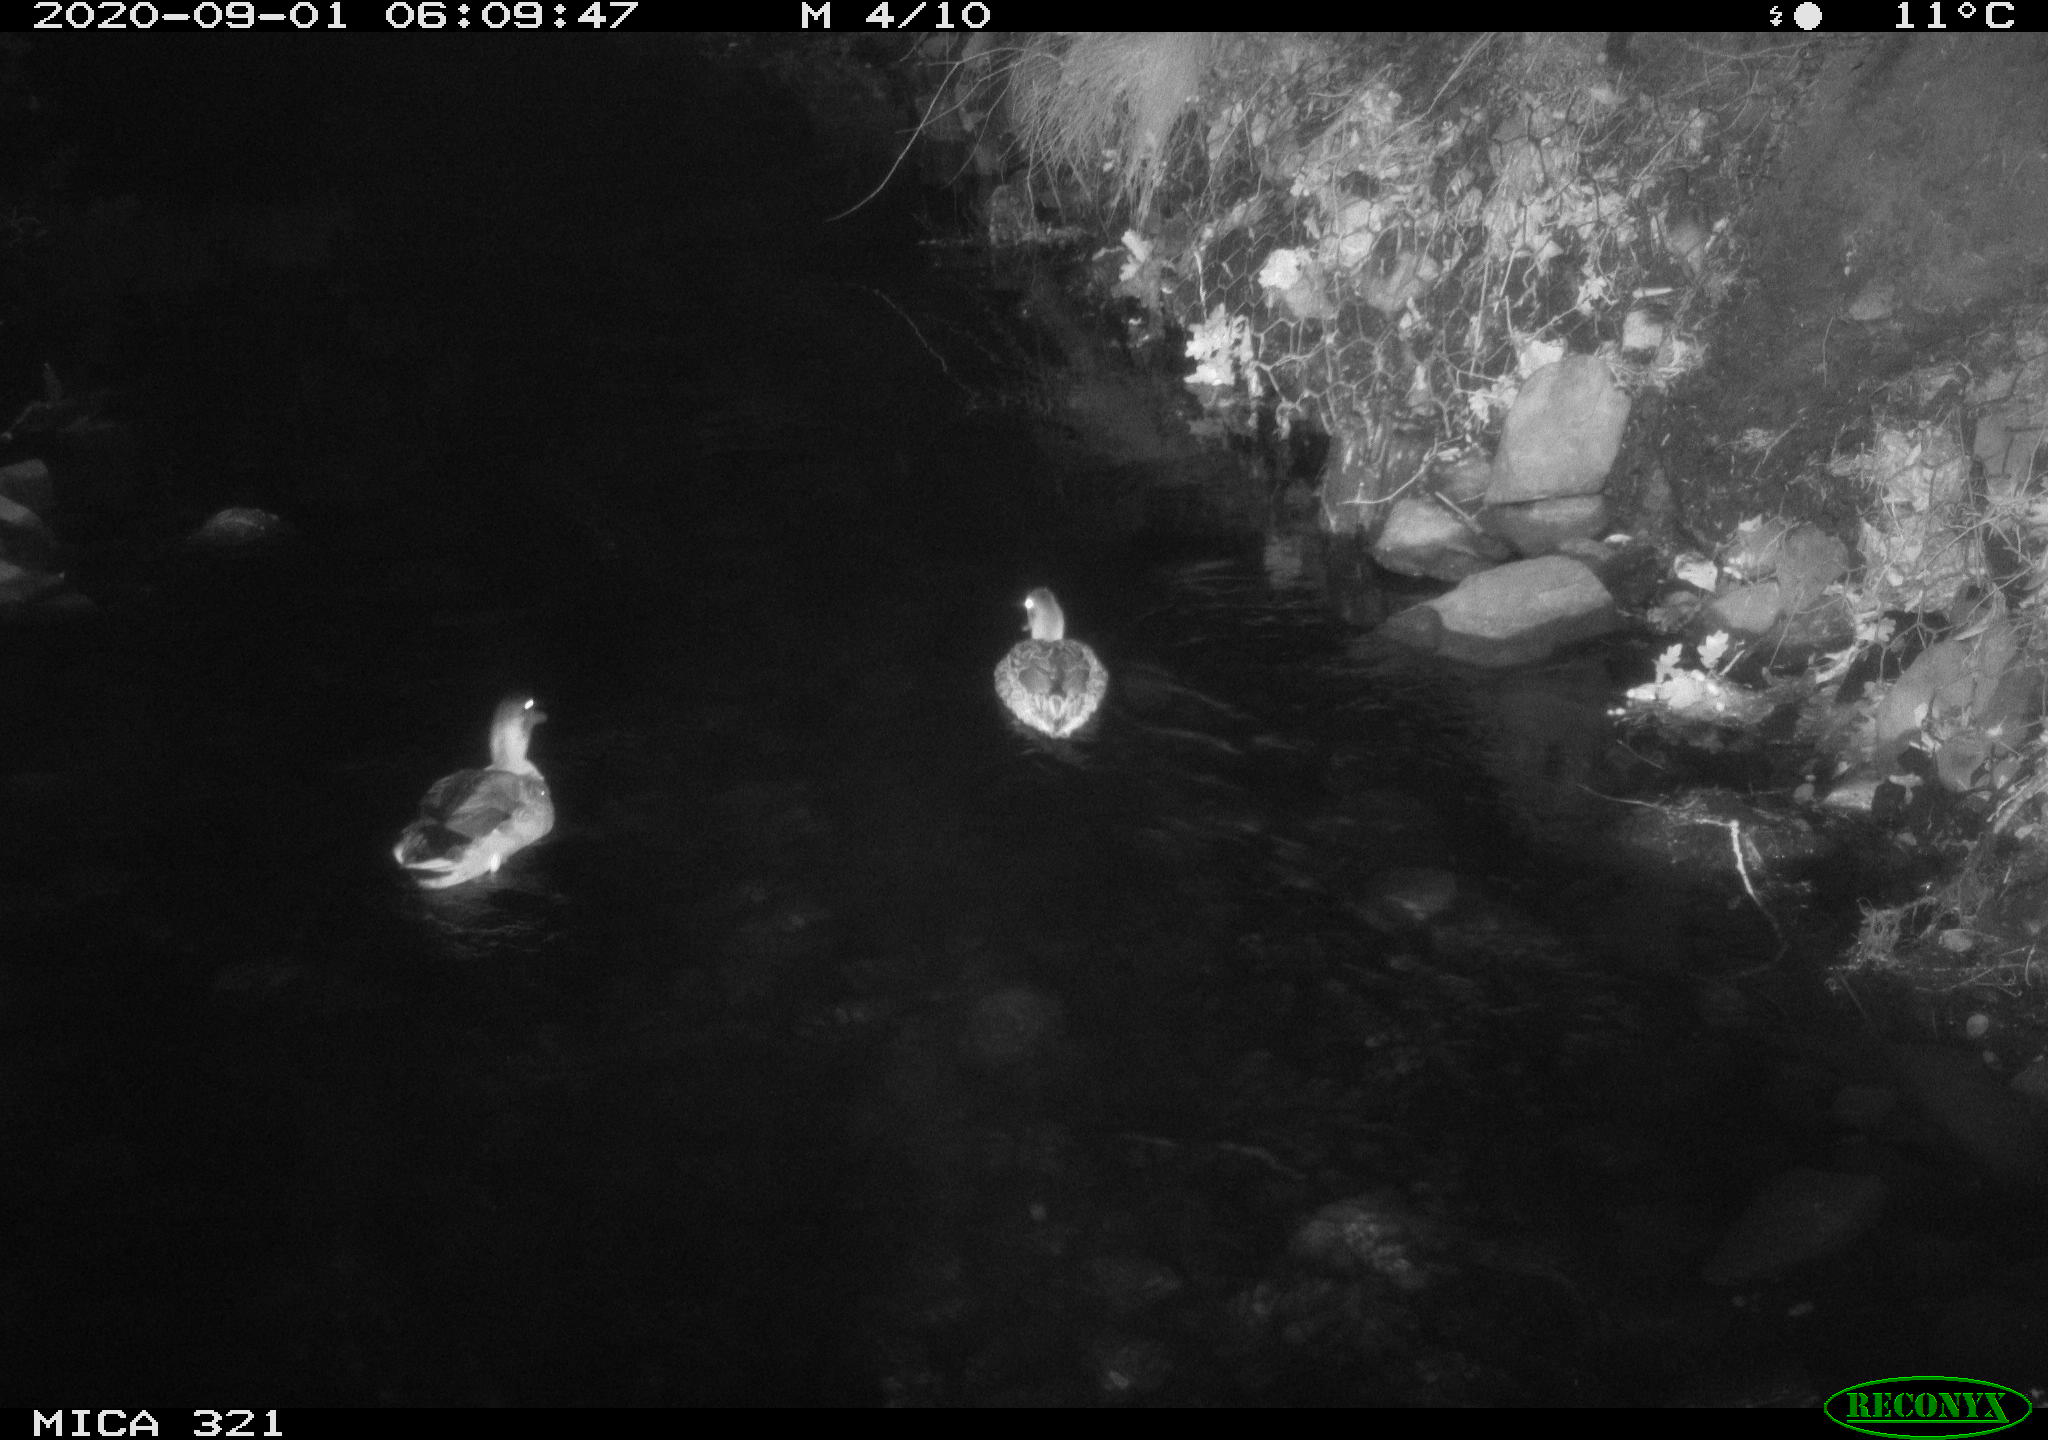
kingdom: Animalia
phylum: Chordata
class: Aves
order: Anseriformes
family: Anatidae
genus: Anas
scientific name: Anas platyrhynchos
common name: Mallard
